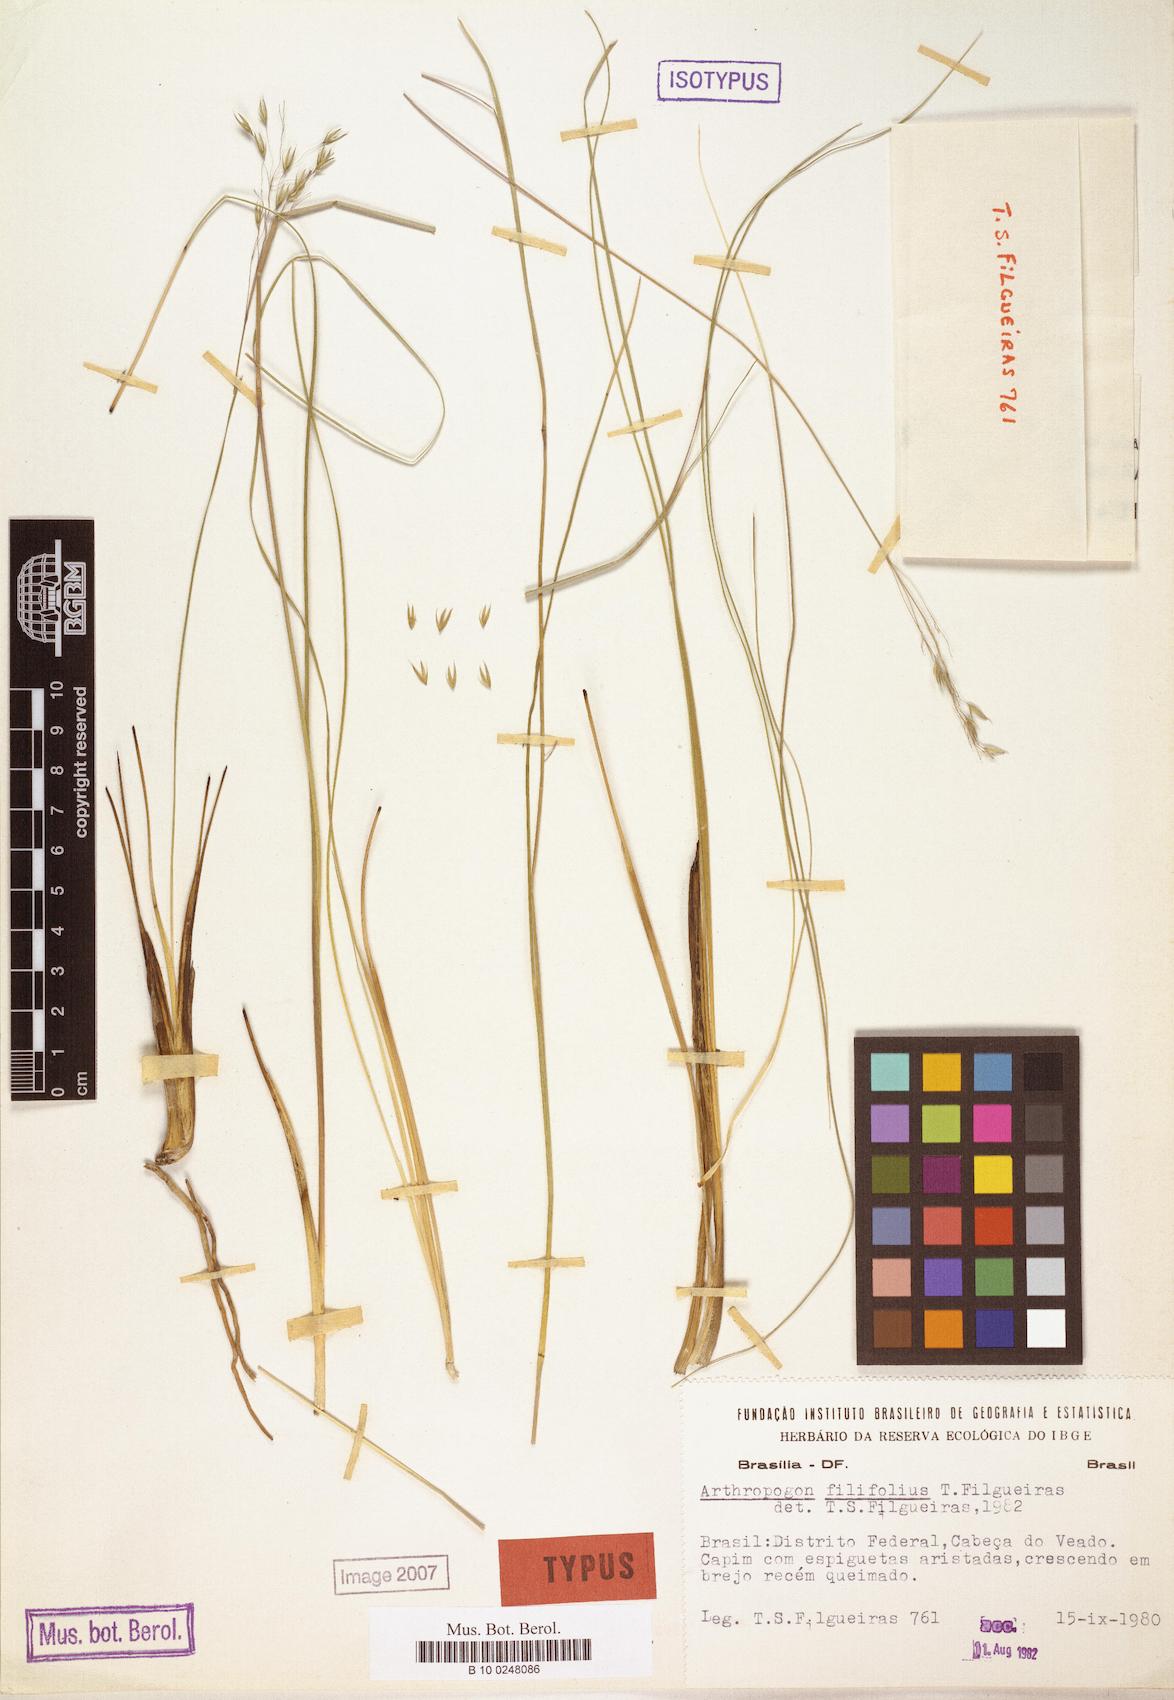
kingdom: Plantae
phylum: Tracheophyta
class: Liliopsida
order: Poales
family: Poaceae
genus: Arthropogon
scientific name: Arthropogon filifolius
